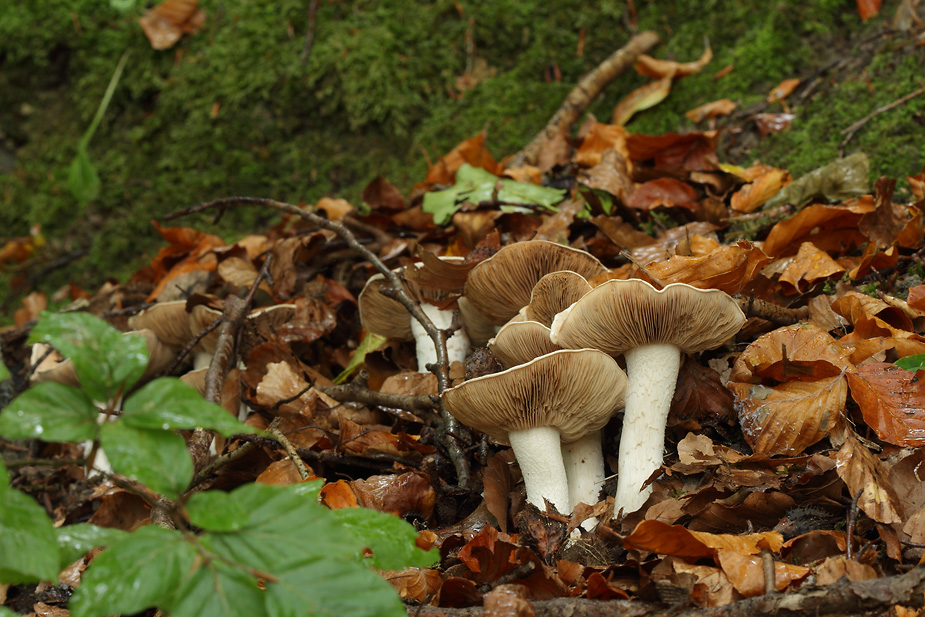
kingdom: Fungi
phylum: Basidiomycota
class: Agaricomycetes
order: Agaricales
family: Hymenogastraceae
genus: Hebeloma
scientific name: Hebeloma sinapizans
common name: ræddike-tåreblad
